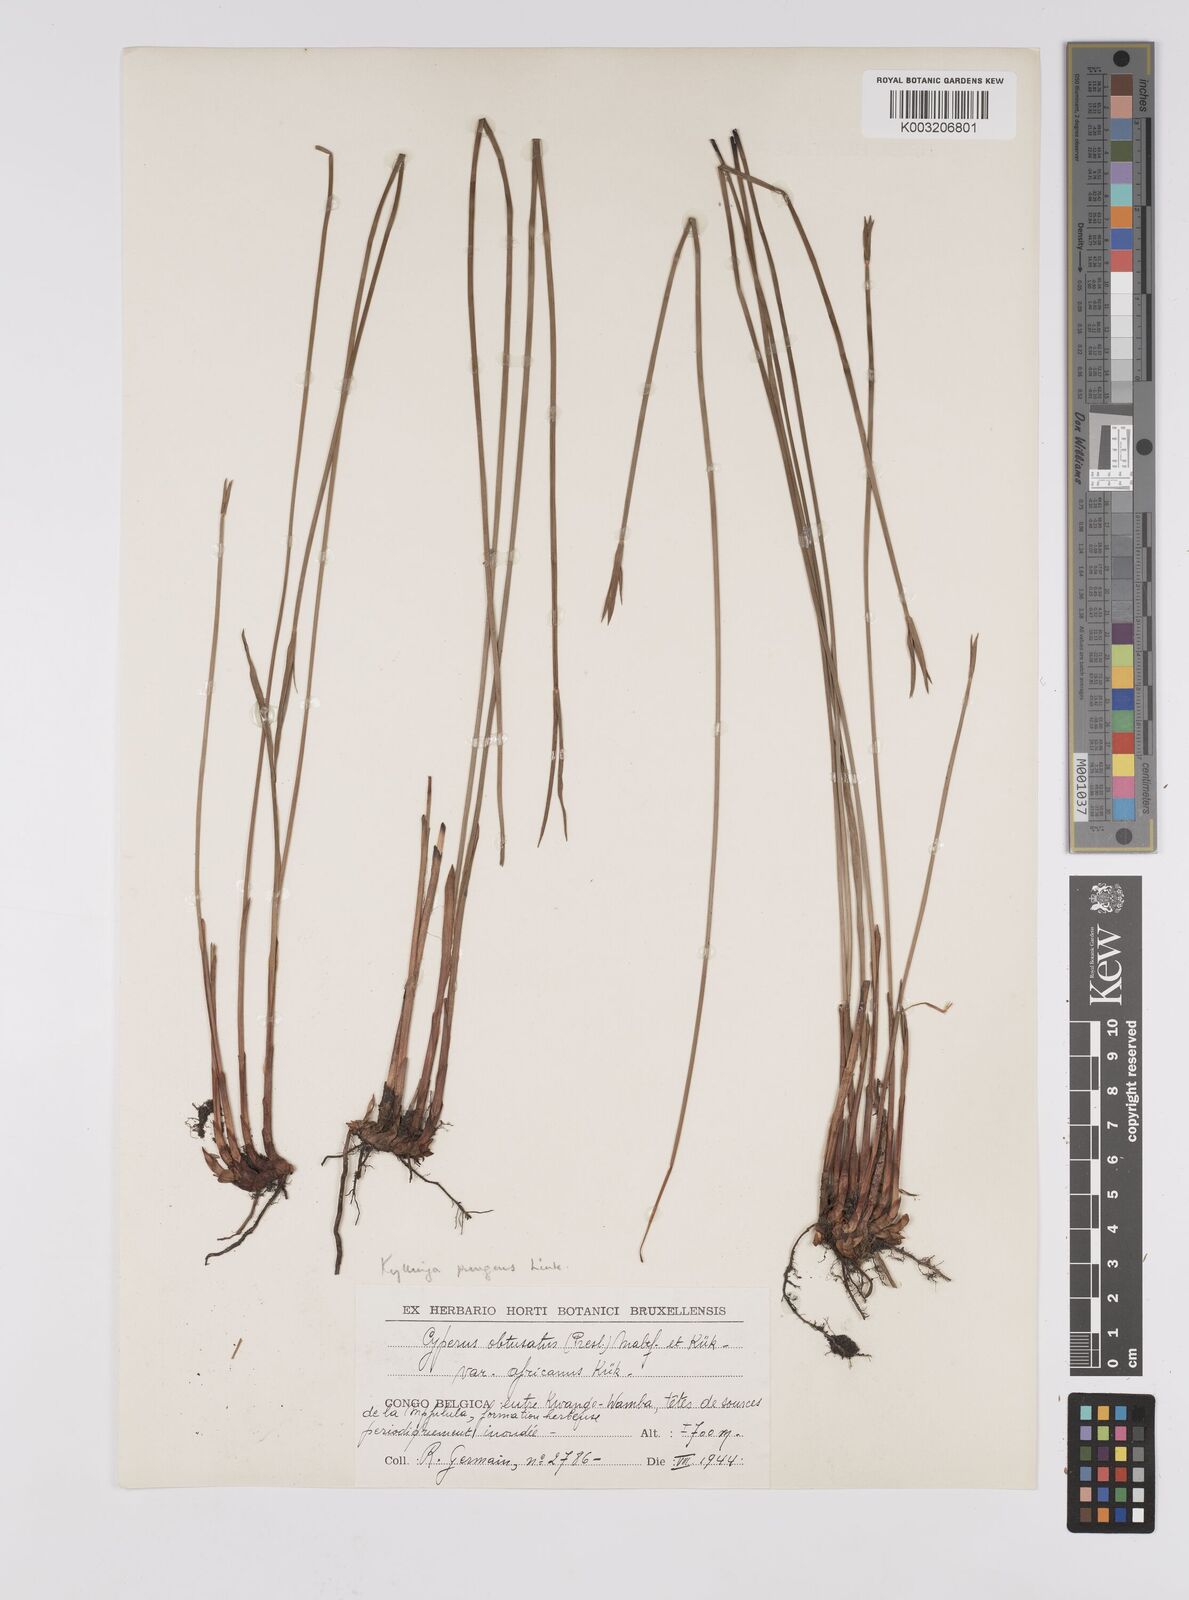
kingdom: Plantae
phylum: Tracheophyta
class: Liliopsida
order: Poales
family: Cyperaceae
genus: Cyperus
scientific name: Cyperus
